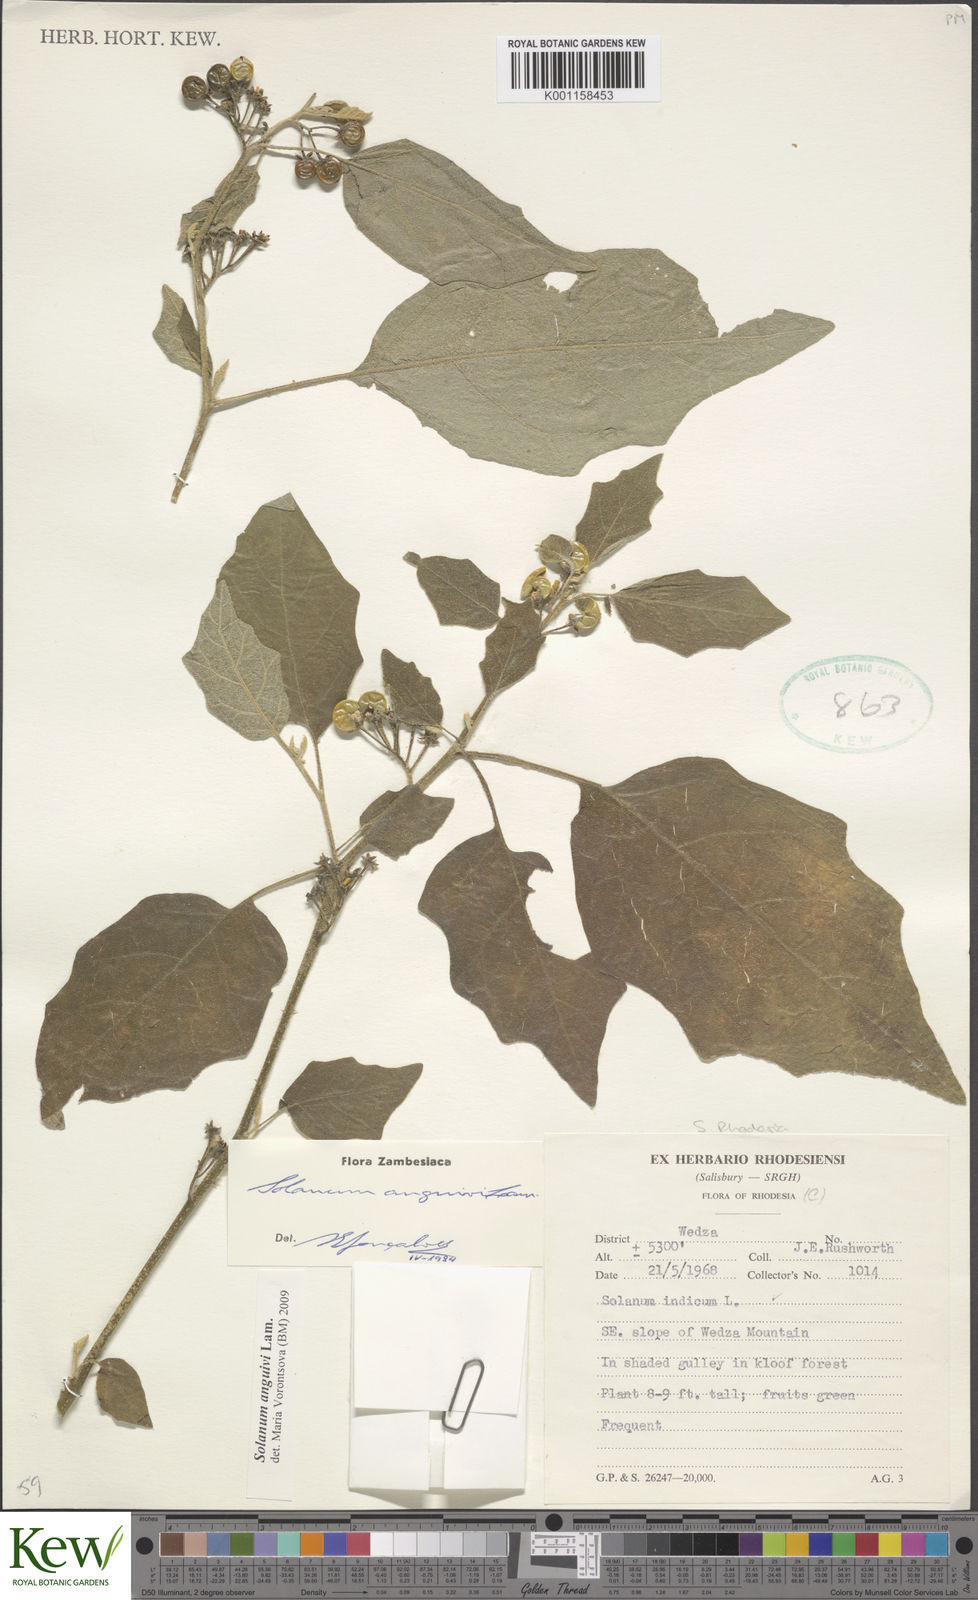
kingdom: Plantae
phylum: Tracheophyta
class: Magnoliopsida
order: Solanales
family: Solanaceae
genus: Solanum
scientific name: Solanum anguivi
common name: Forest bitterberry
